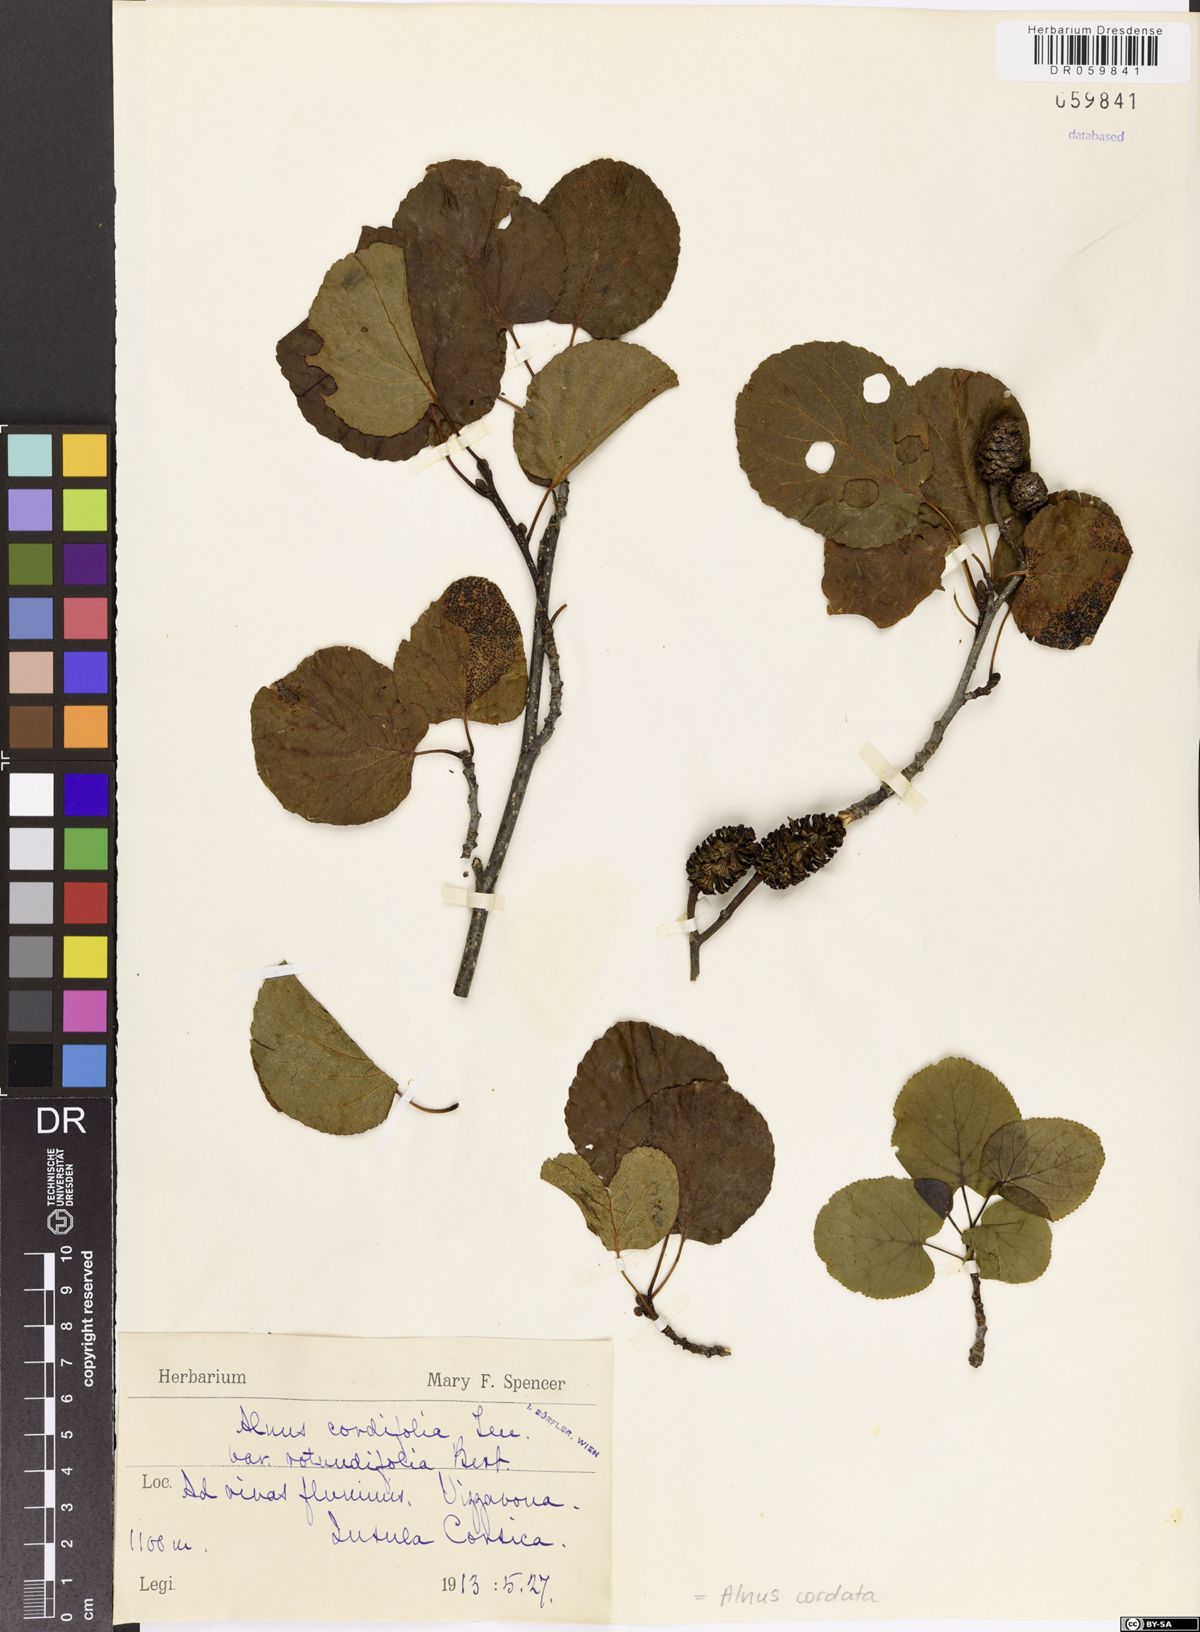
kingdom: Plantae
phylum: Tracheophyta
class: Magnoliopsida
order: Fagales
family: Betulaceae
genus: Alnus
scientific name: Alnus cordata
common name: Italian alder
